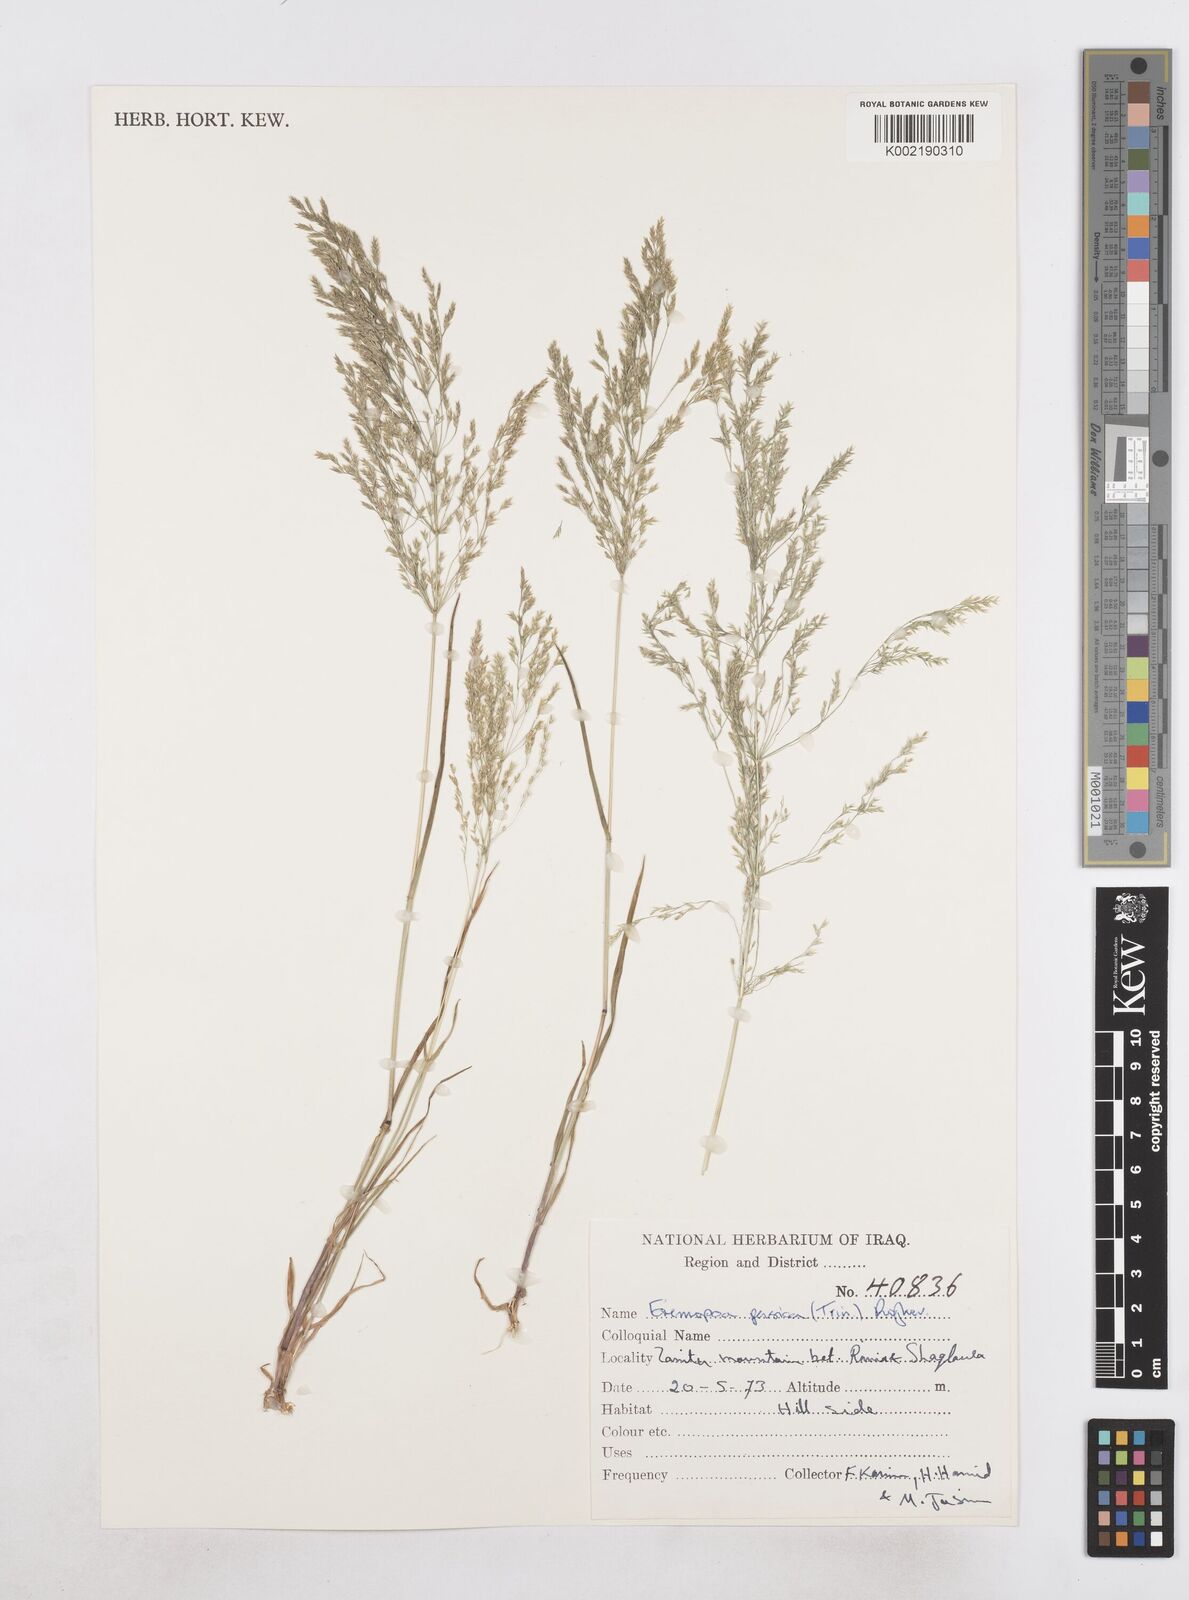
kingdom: Plantae
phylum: Tracheophyta
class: Liliopsida
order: Poales
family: Poaceae
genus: Poa
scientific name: Poa persica
